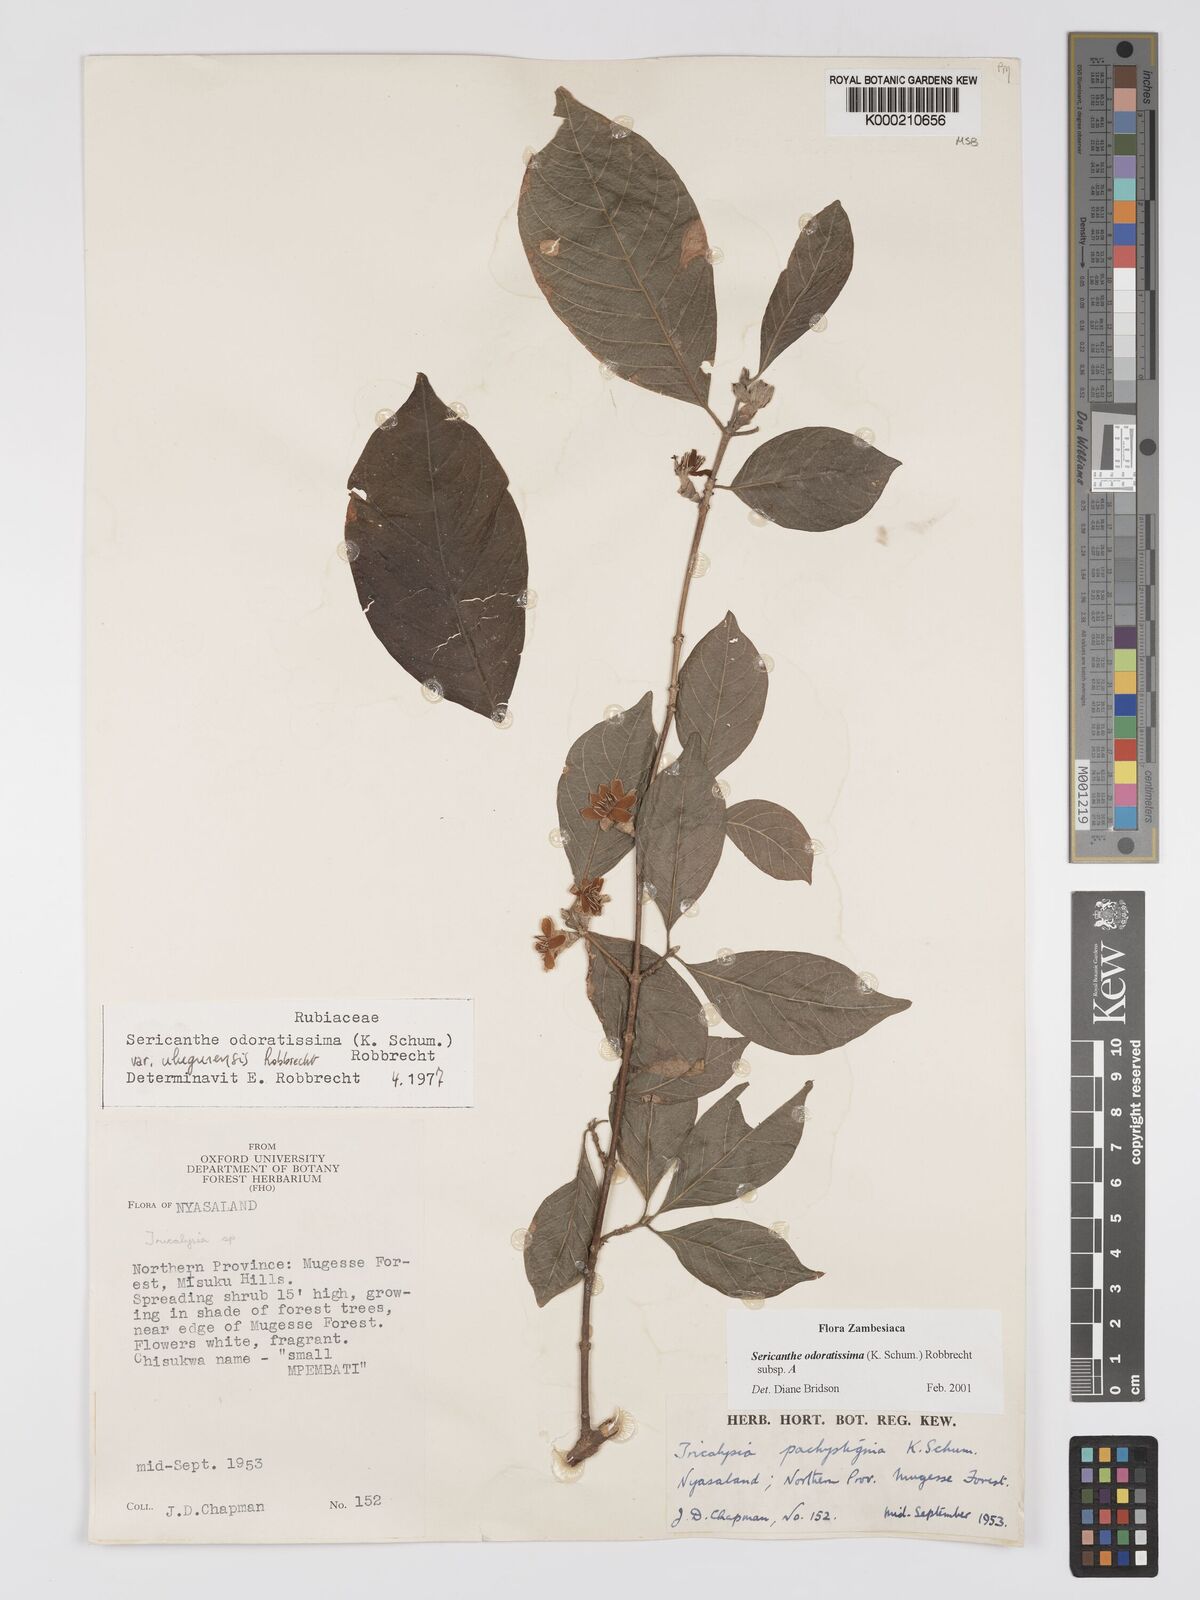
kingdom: Plantae
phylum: Tracheophyta
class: Magnoliopsida
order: Gentianales
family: Rubiaceae
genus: Sericanthe
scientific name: Sericanthe odoratissima
